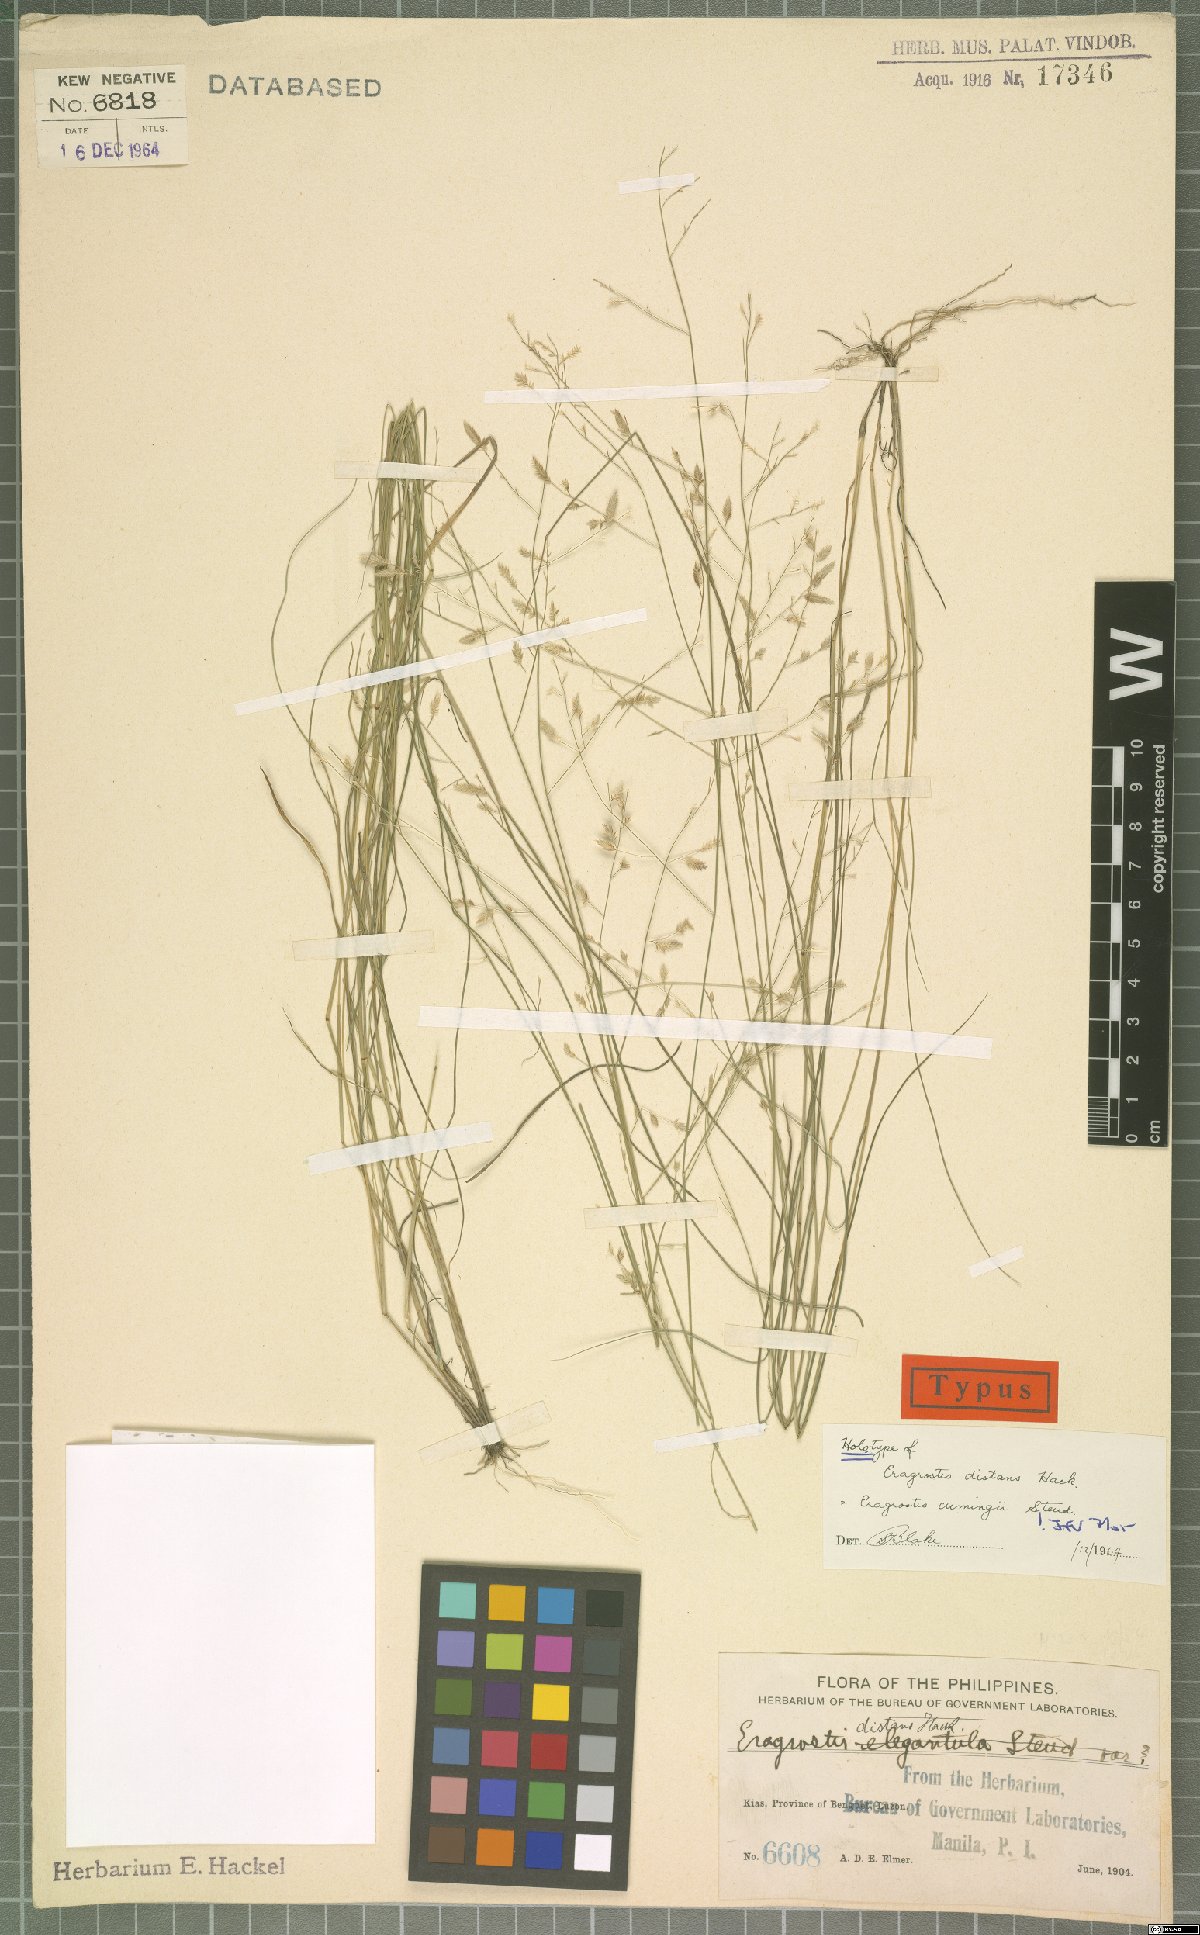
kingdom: Plantae
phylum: Tracheophyta
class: Liliopsida
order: Poales
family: Poaceae
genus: Eragrostis
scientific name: Eragrostis cumingii
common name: Cuming's lovegrass
